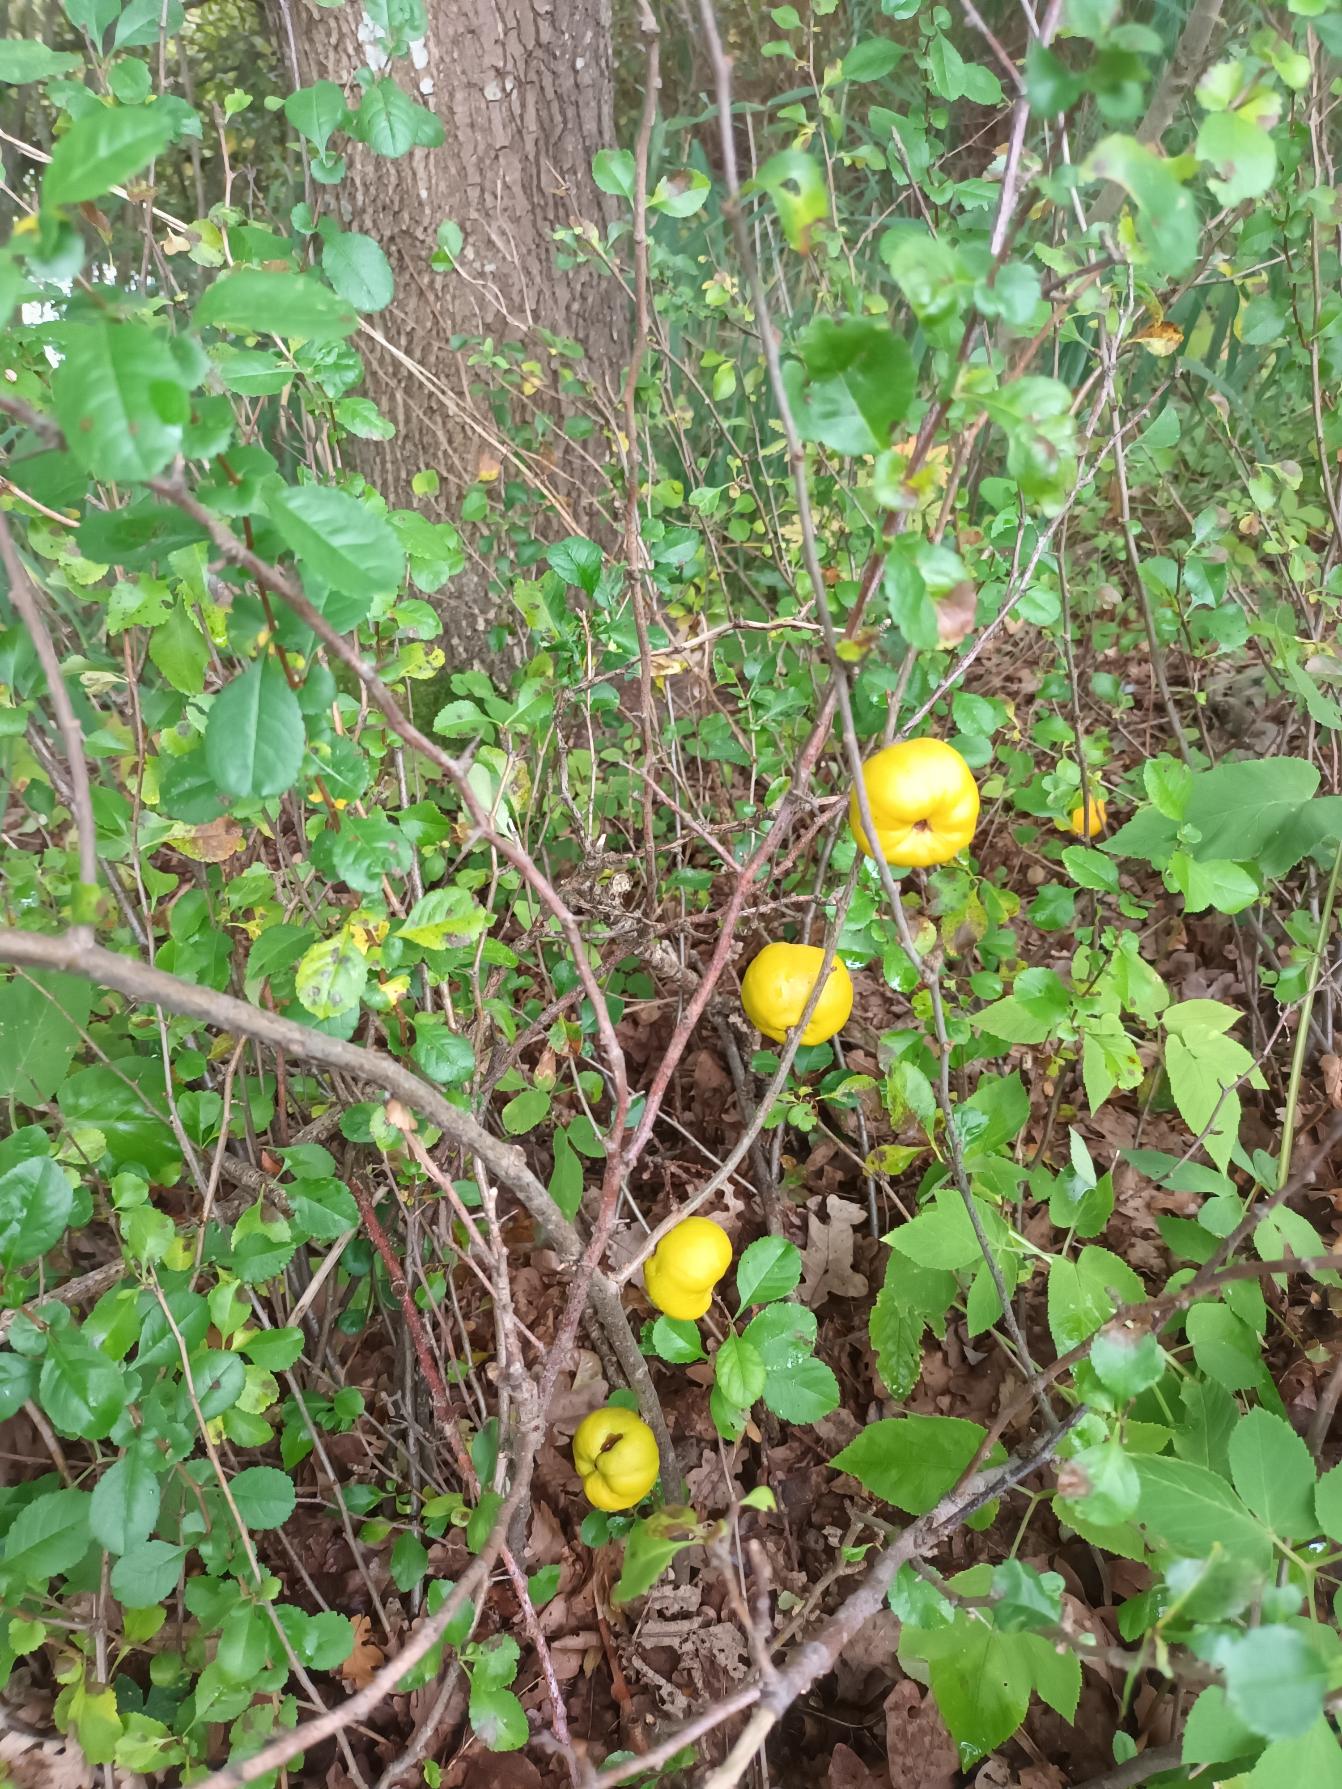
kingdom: Plantae
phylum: Tracheophyta
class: Magnoliopsida
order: Rosales
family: Rosaceae
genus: Chaenomeles
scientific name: Chaenomeles japonica
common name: Lille japankvæde
